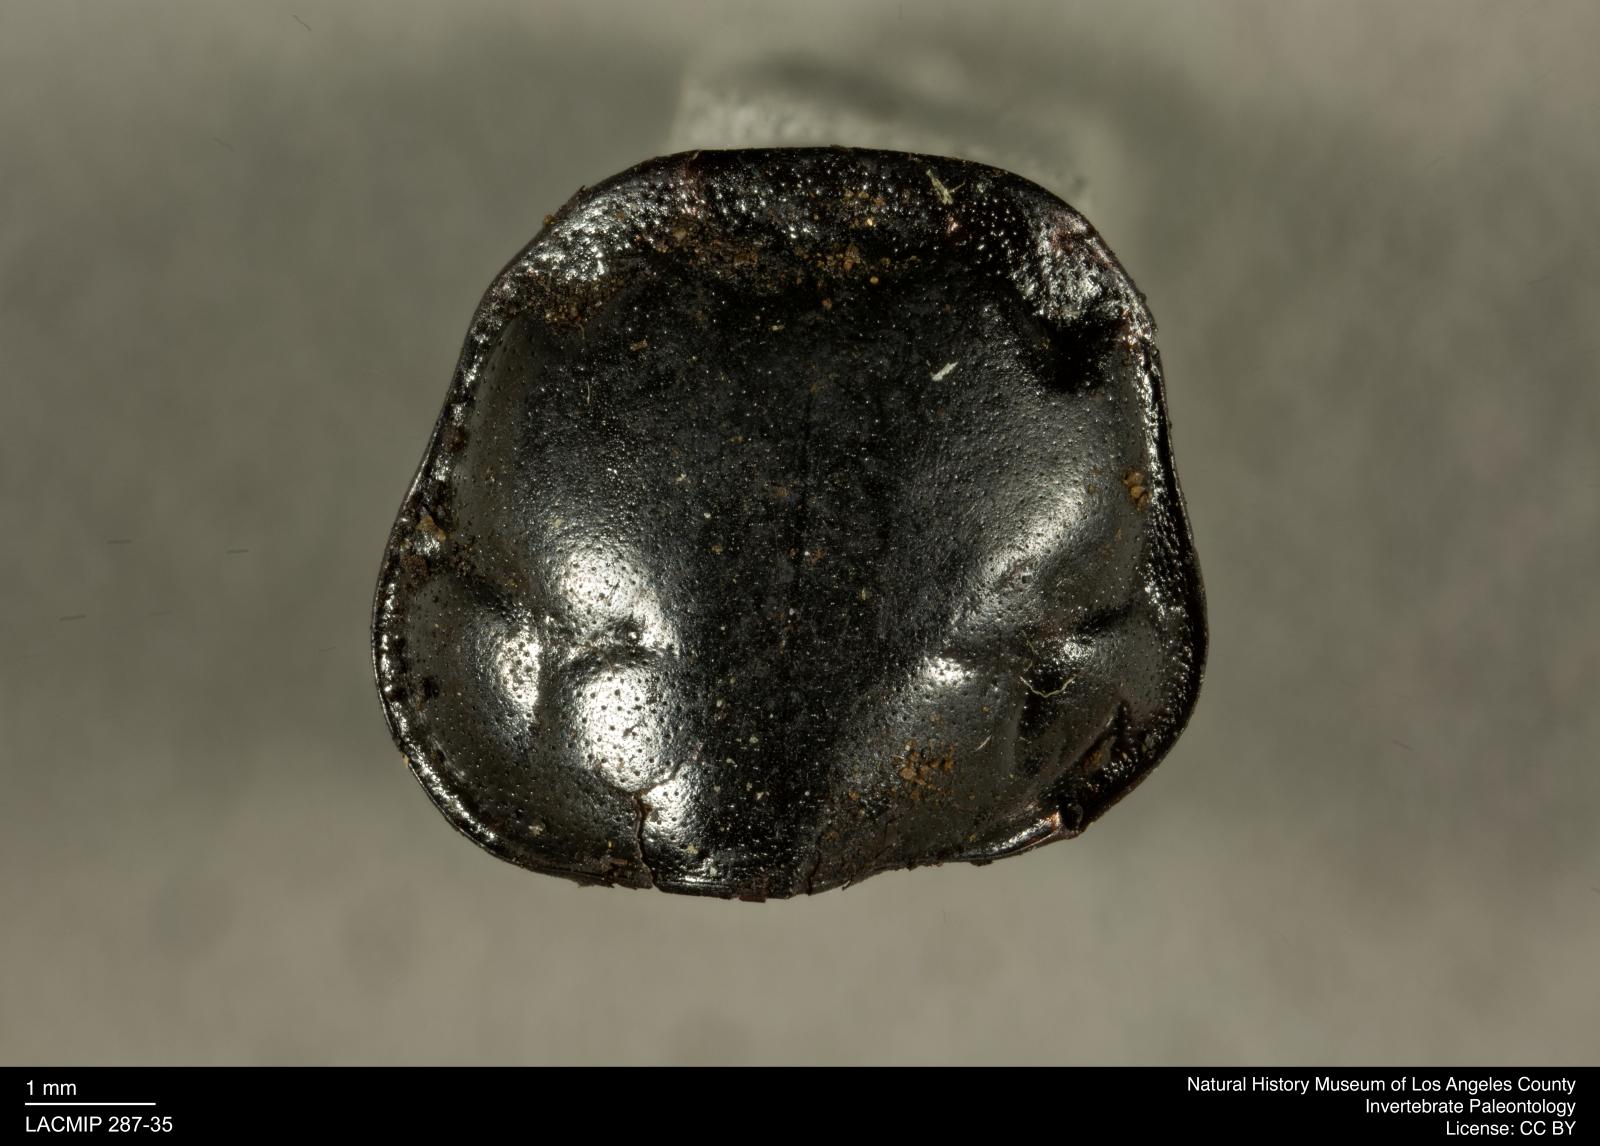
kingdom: Animalia
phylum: Arthropoda
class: Insecta
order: Coleoptera
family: Staphylinidae
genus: Nicrophorus
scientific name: Nicrophorus marginatus
